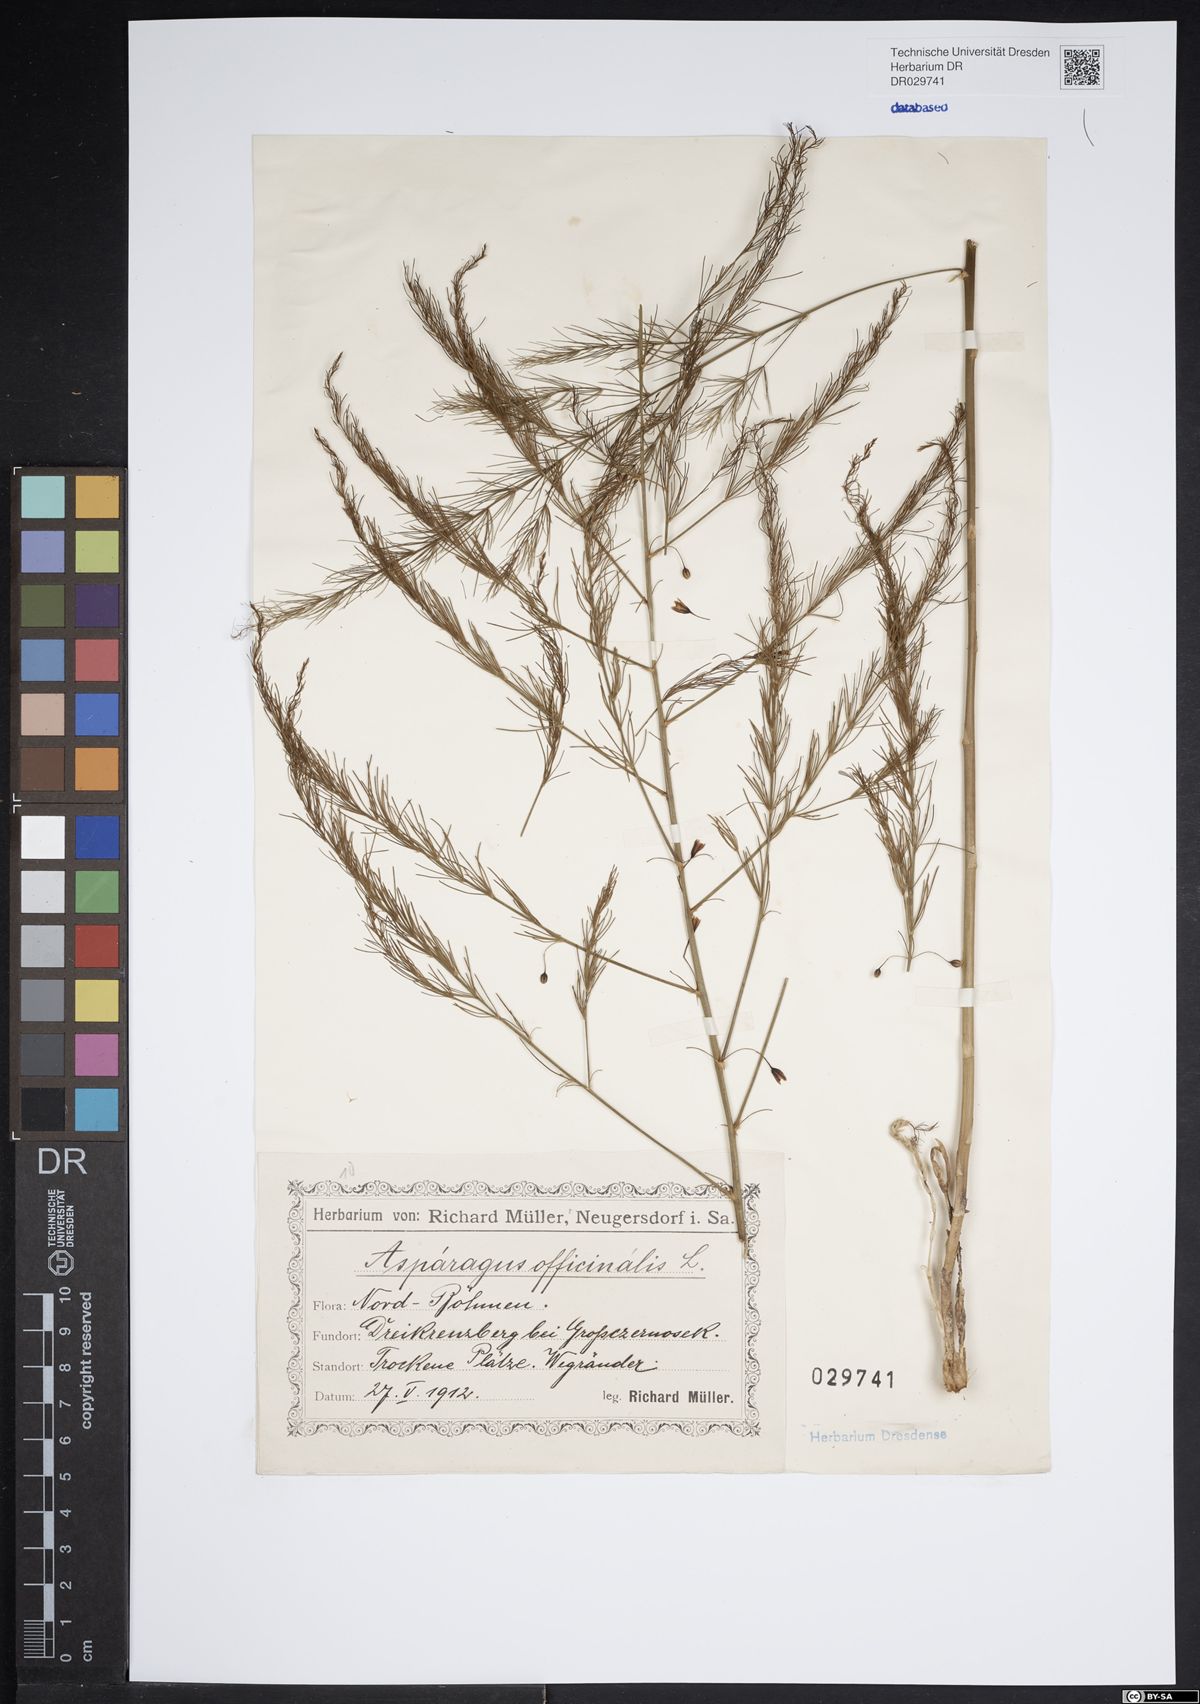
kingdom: Plantae
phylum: Tracheophyta
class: Liliopsida
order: Asparagales
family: Asparagaceae
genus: Asparagus
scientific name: Asparagus officinalis
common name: Garden asparagus
